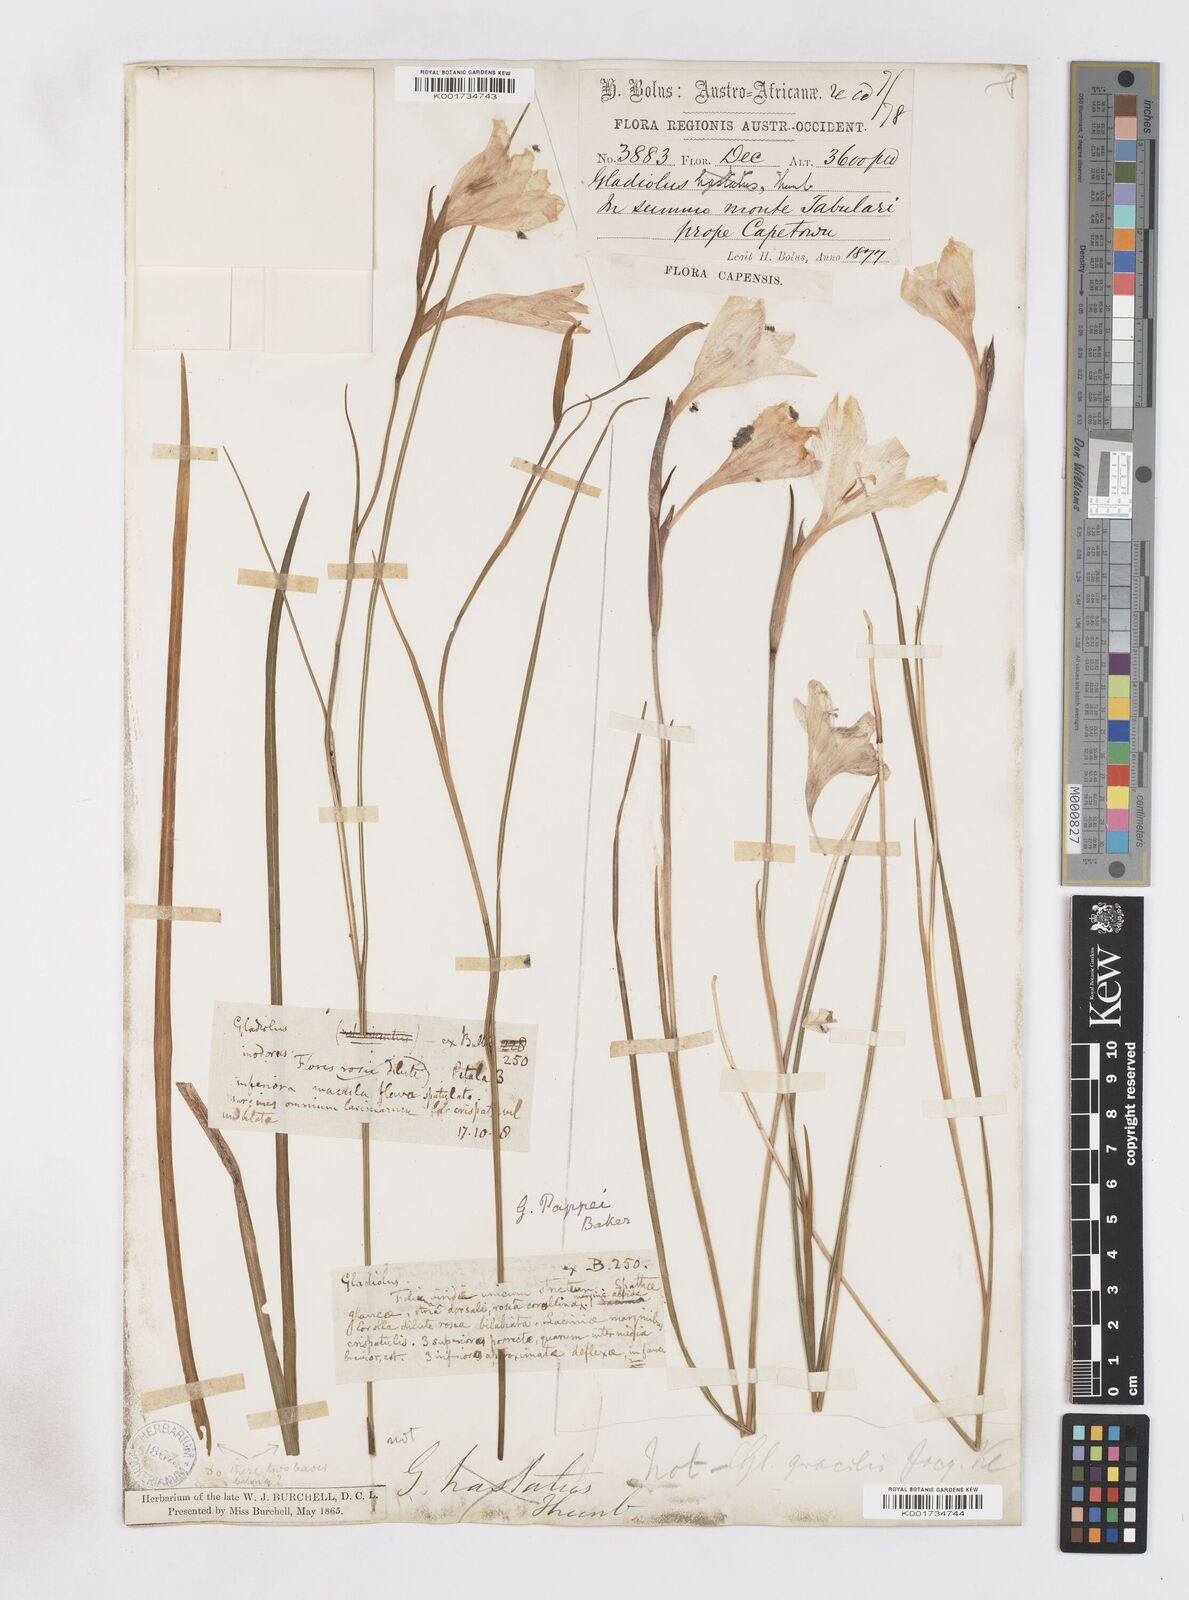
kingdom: Plantae
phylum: Tracheophyta
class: Liliopsida
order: Asparagales
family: Iridaceae
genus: Gladiolus
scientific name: Gladiolus pappei
